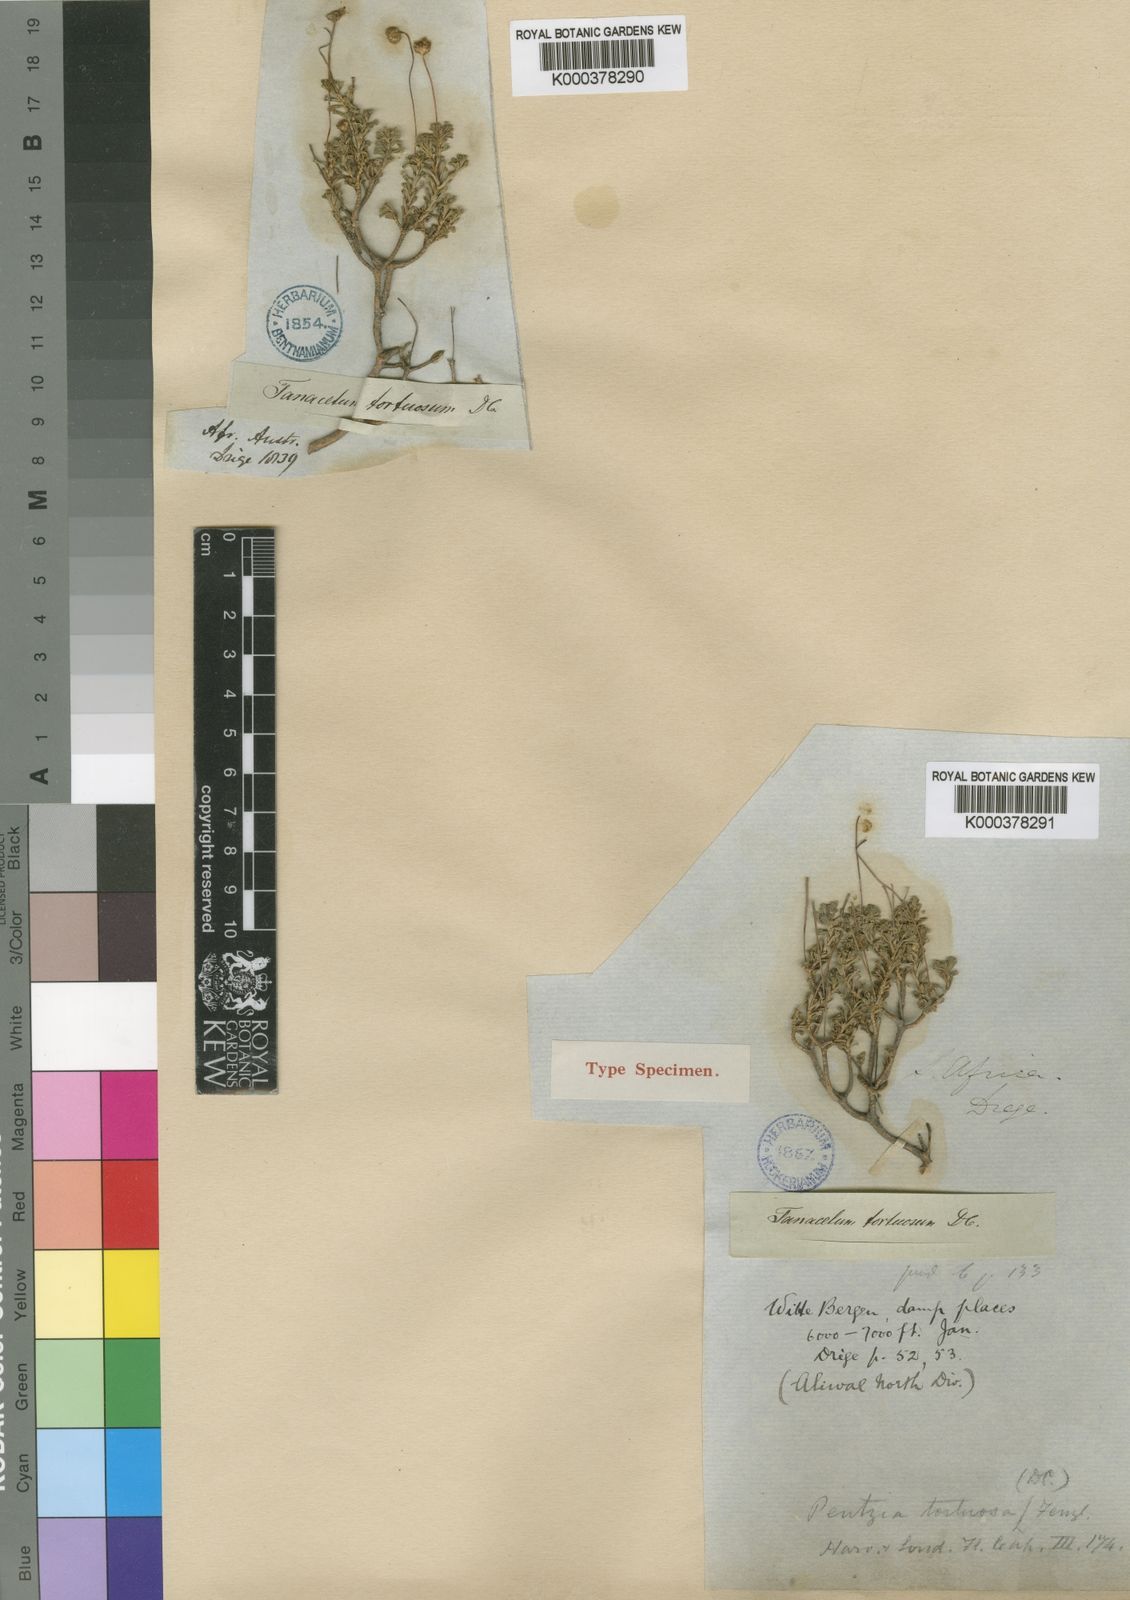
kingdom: Plantae
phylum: Tracheophyta
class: Magnoliopsida
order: Asterales
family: Asteraceae
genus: Pentzia
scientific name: Pentzia tortuosa
